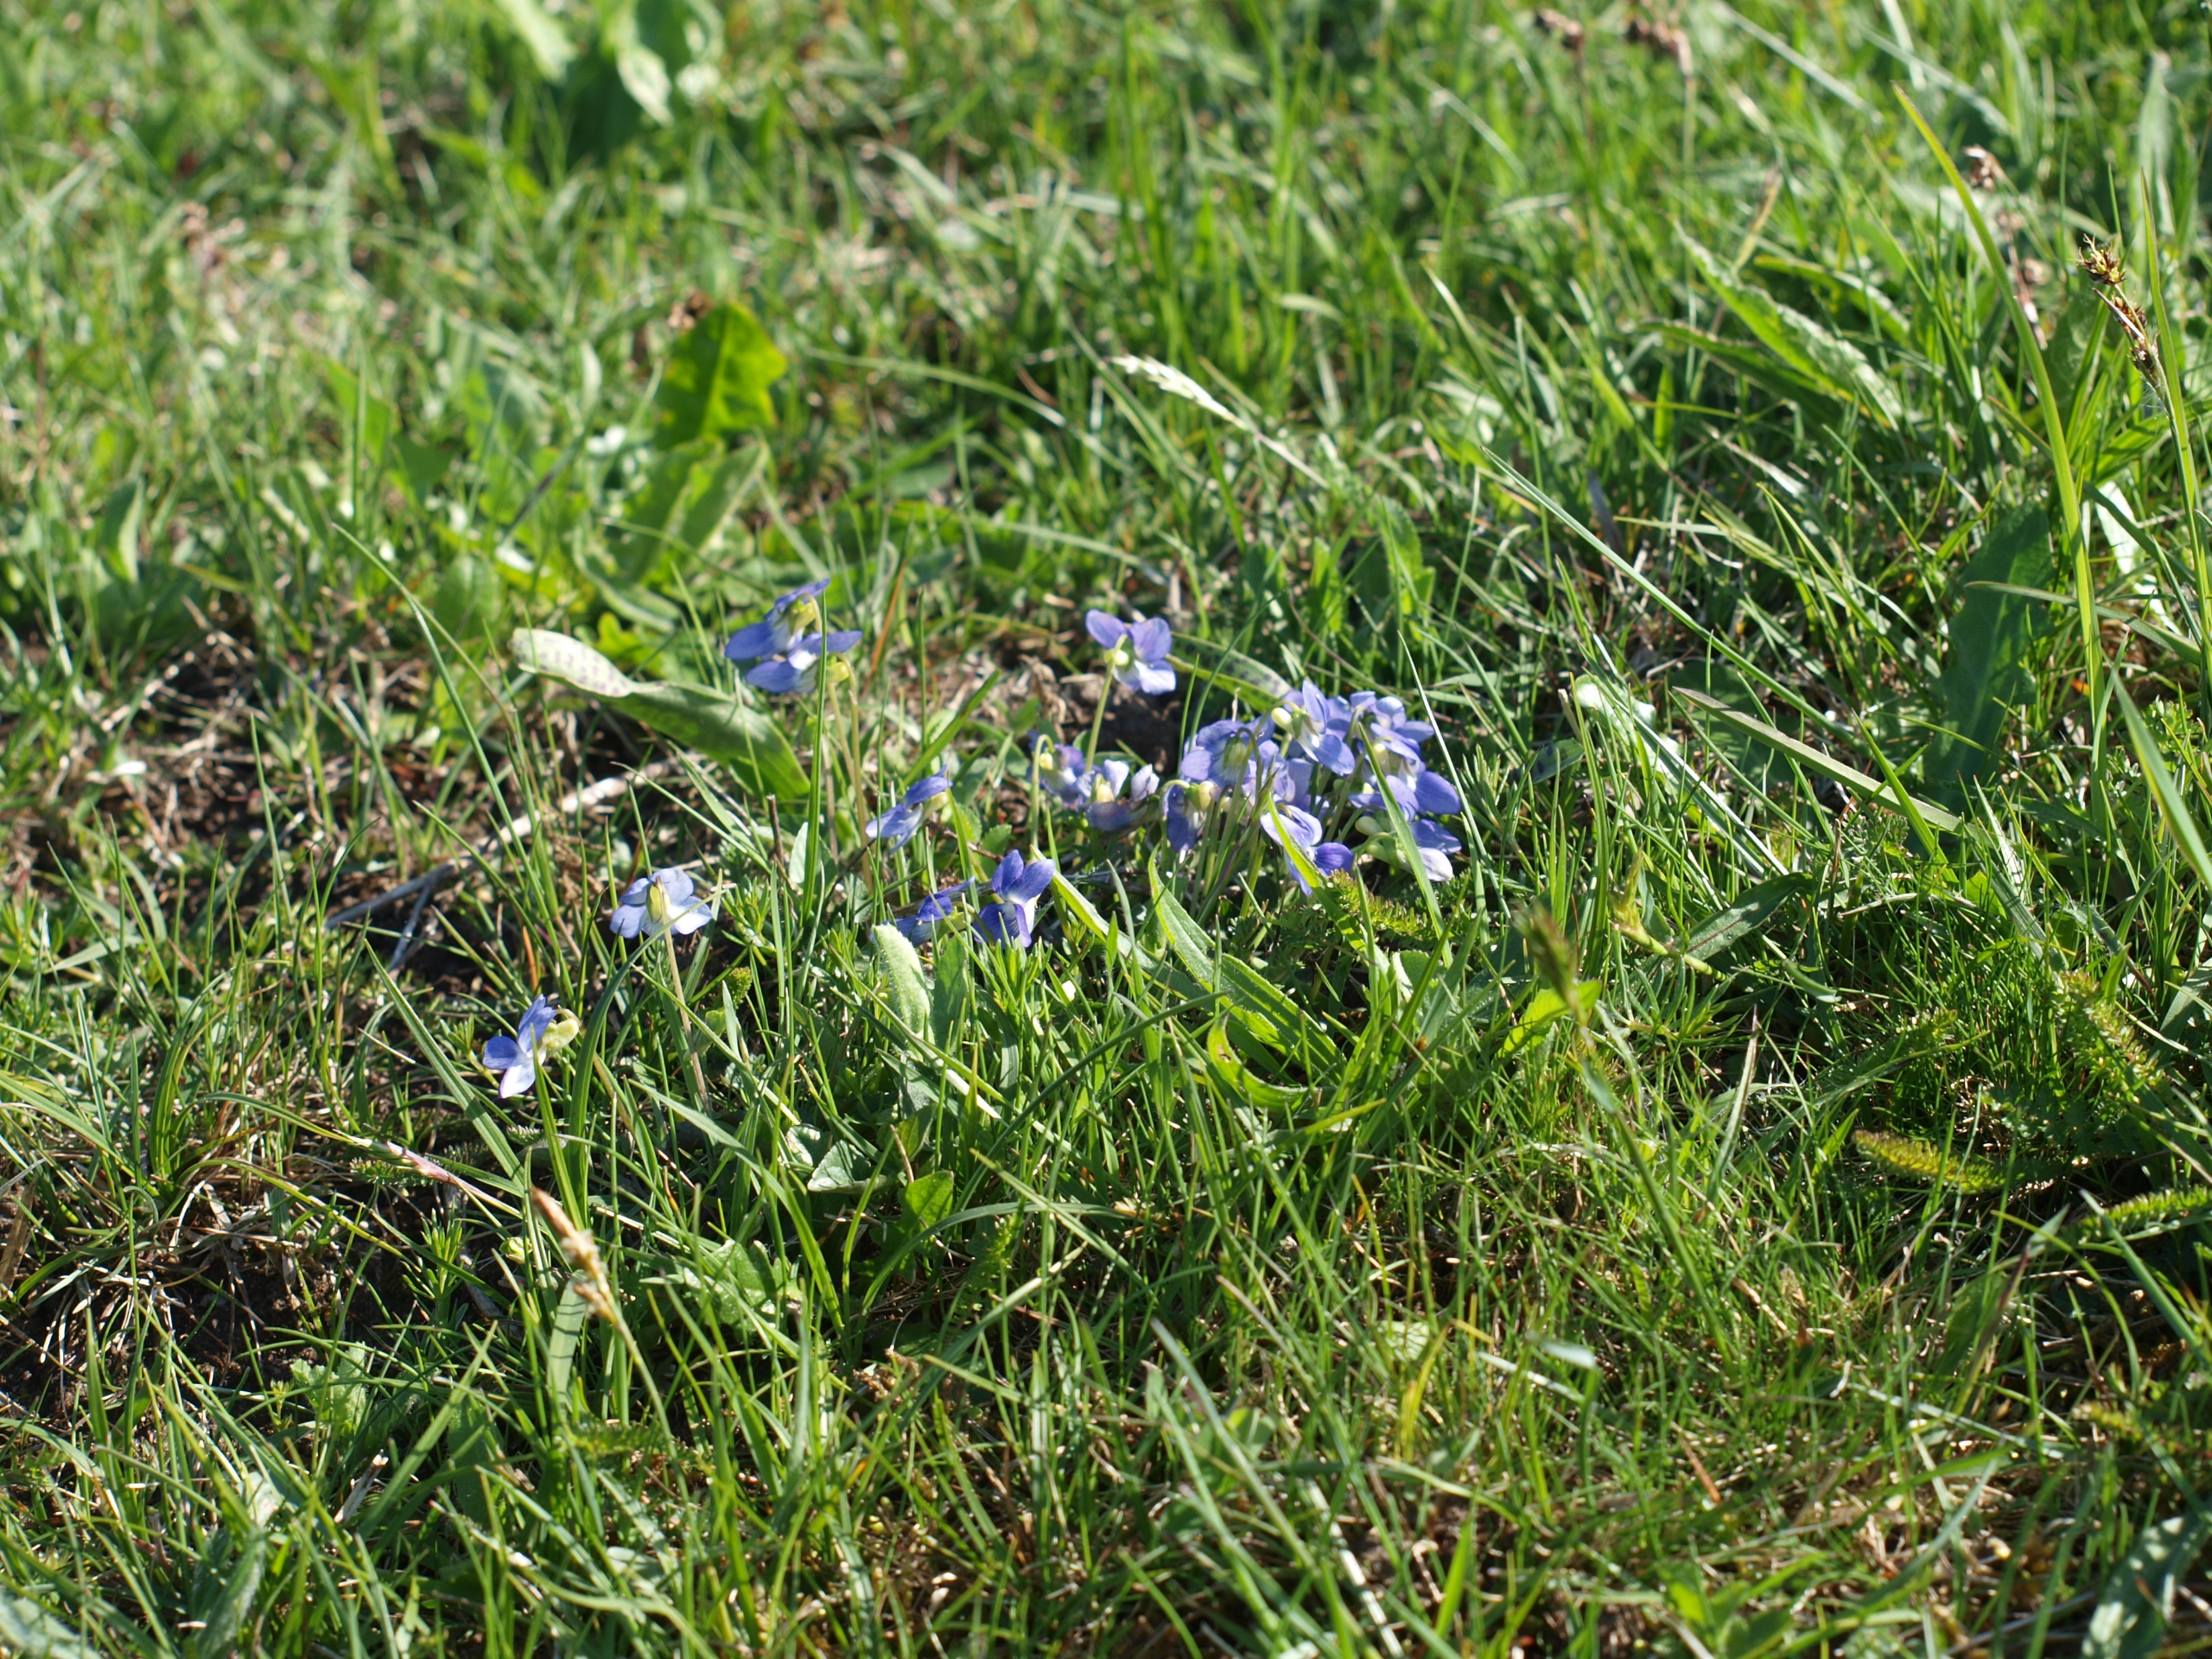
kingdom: Plantae
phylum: Tracheophyta
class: Magnoliopsida
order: Malpighiales
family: Violaceae
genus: Viola
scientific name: Viola canina
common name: Hunde-viol
